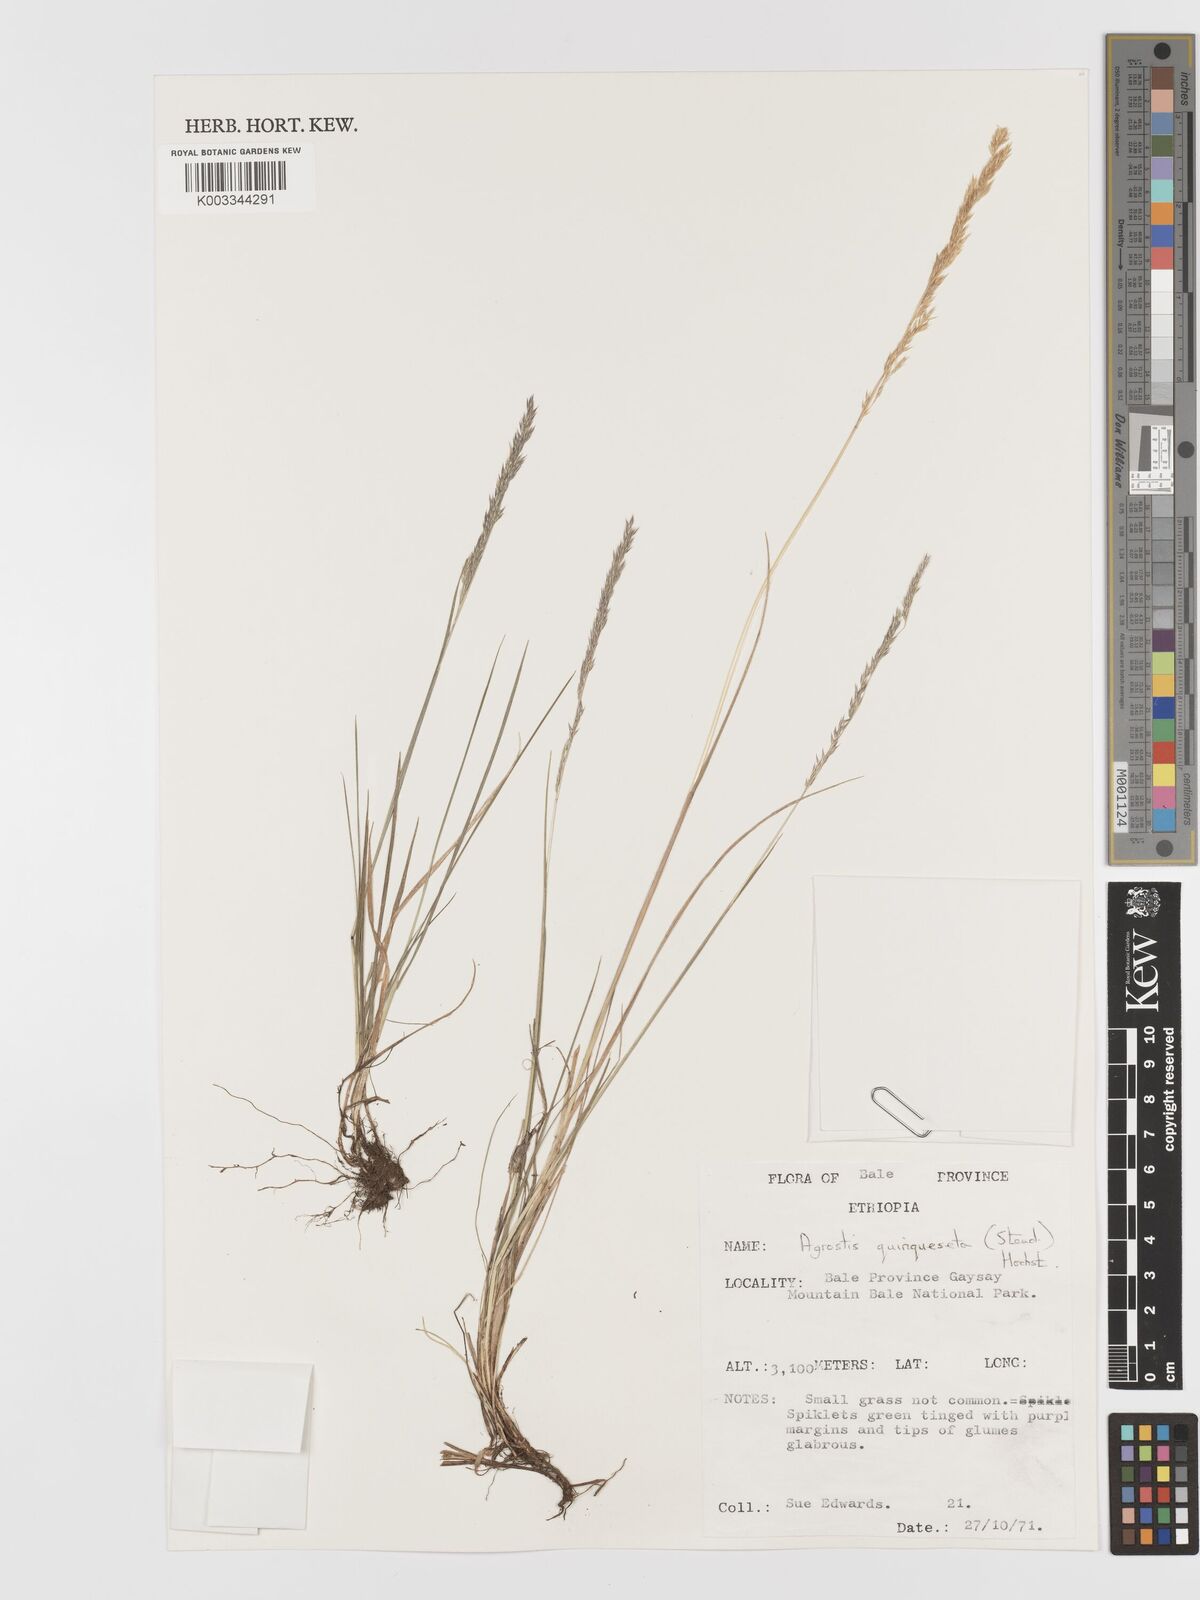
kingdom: Plantae
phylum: Tracheophyta
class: Liliopsida
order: Poales
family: Poaceae
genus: Agrostis
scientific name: Agrostis quinqueseta
